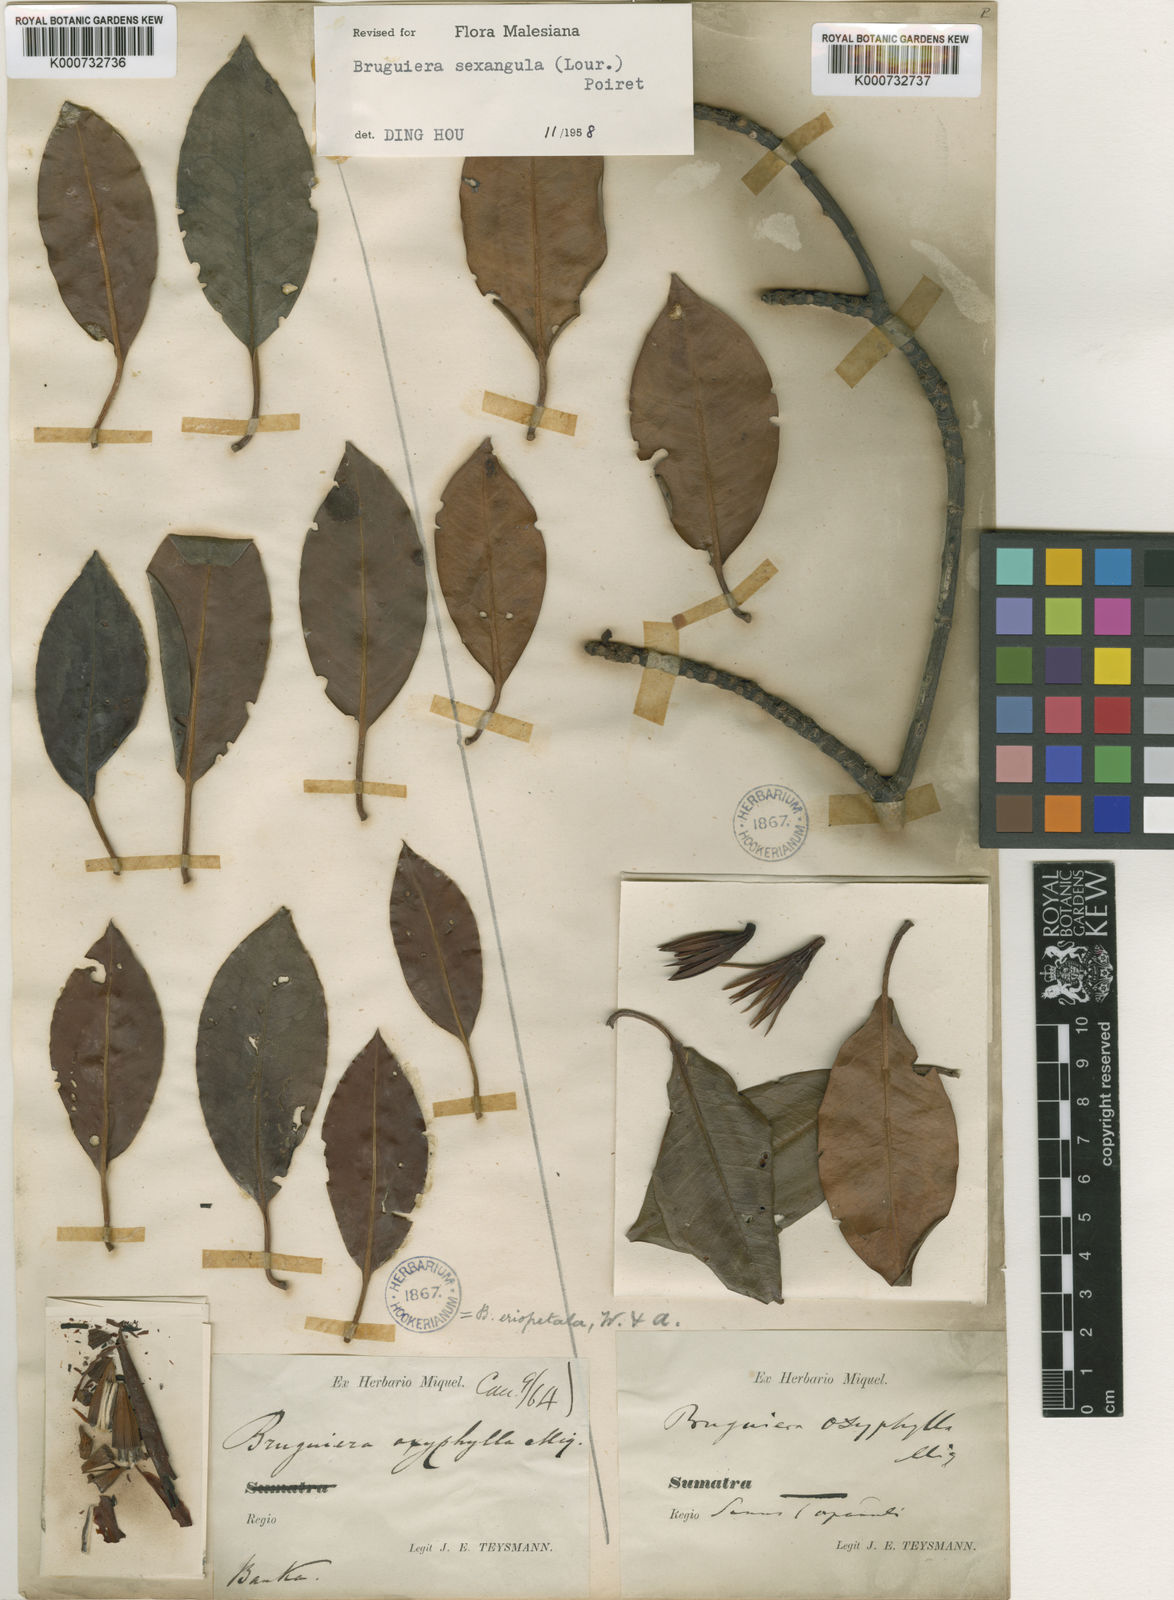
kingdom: Plantae
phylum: Tracheophyta
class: Magnoliopsida
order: Malpighiales
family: Rhizophoraceae
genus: Bruguiera
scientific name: Bruguiera sexangula
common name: Oriental mangrove
